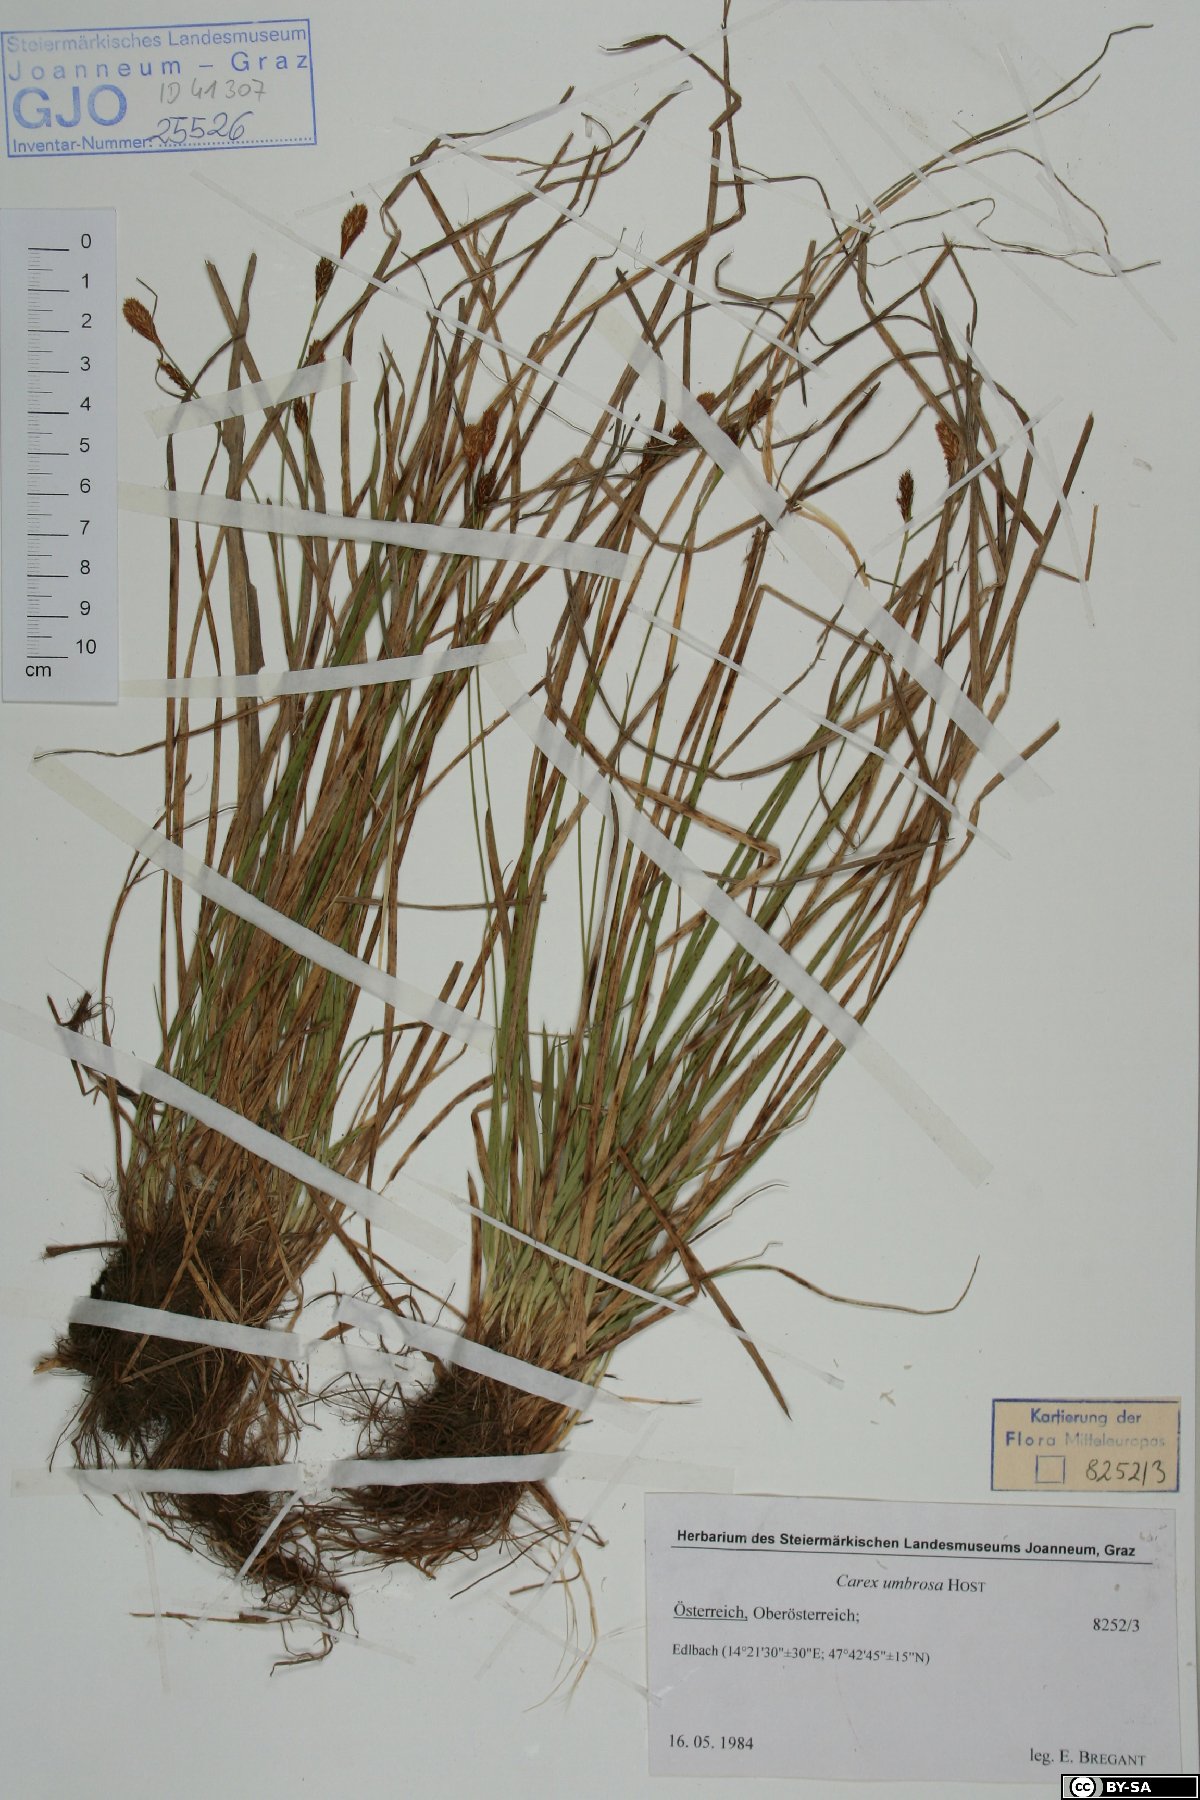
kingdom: Plantae
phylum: Tracheophyta
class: Liliopsida
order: Poales
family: Cyperaceae
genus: Carex
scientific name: Carex umbrosa
